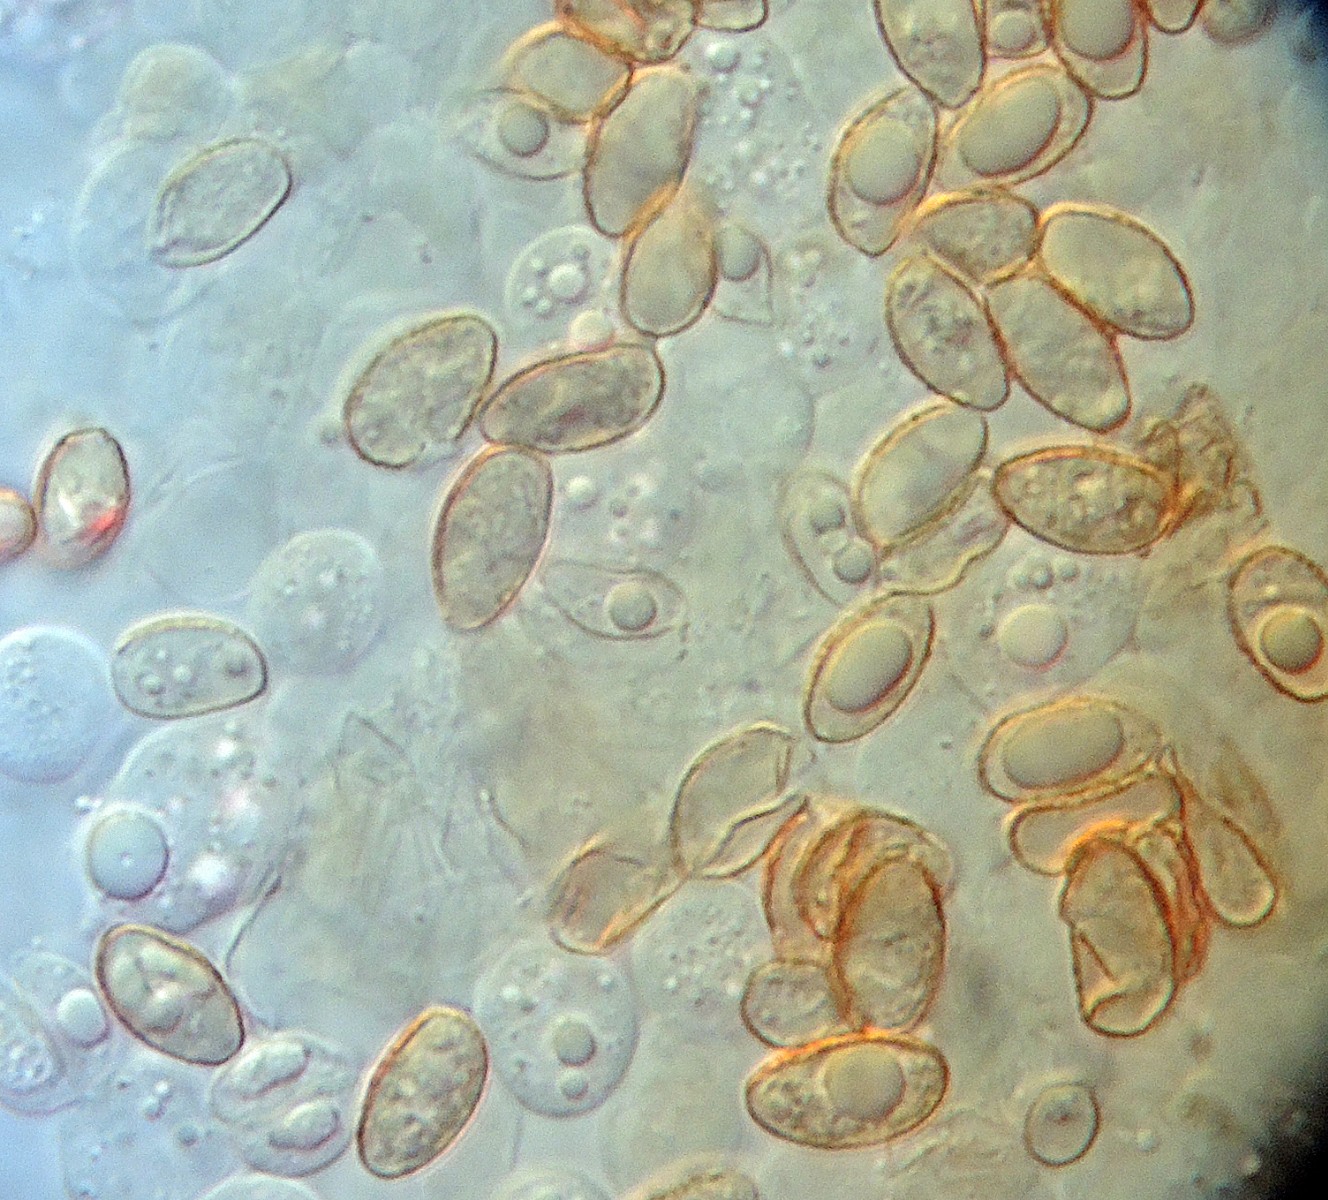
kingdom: Fungi
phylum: Basidiomycota
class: Agaricomycetes
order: Agaricales
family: Hymenogastraceae
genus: Naucoria
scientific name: Naucoria geraniolens
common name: pelargonie-knaphat
